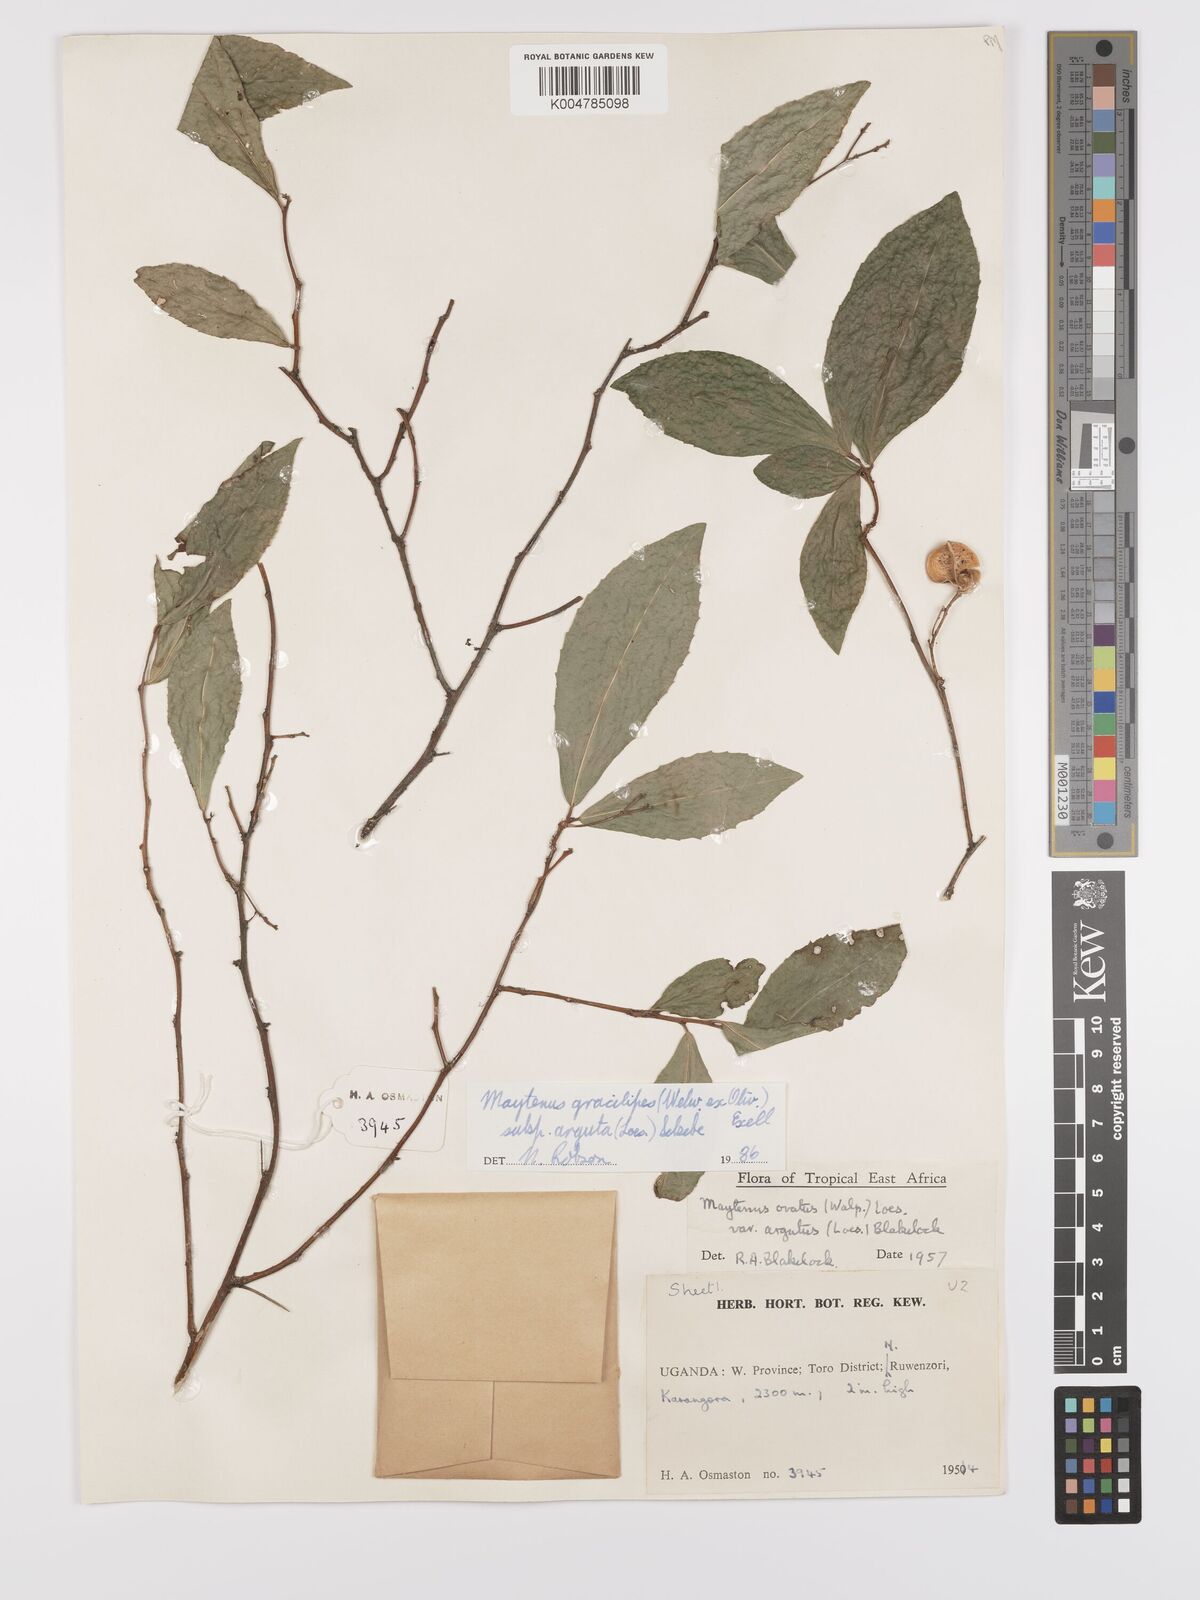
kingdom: Plantae
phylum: Tracheophyta
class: Magnoliopsida
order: Celastrales
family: Celastraceae
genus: Gymnosporia
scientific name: Gymnosporia gracilipes
